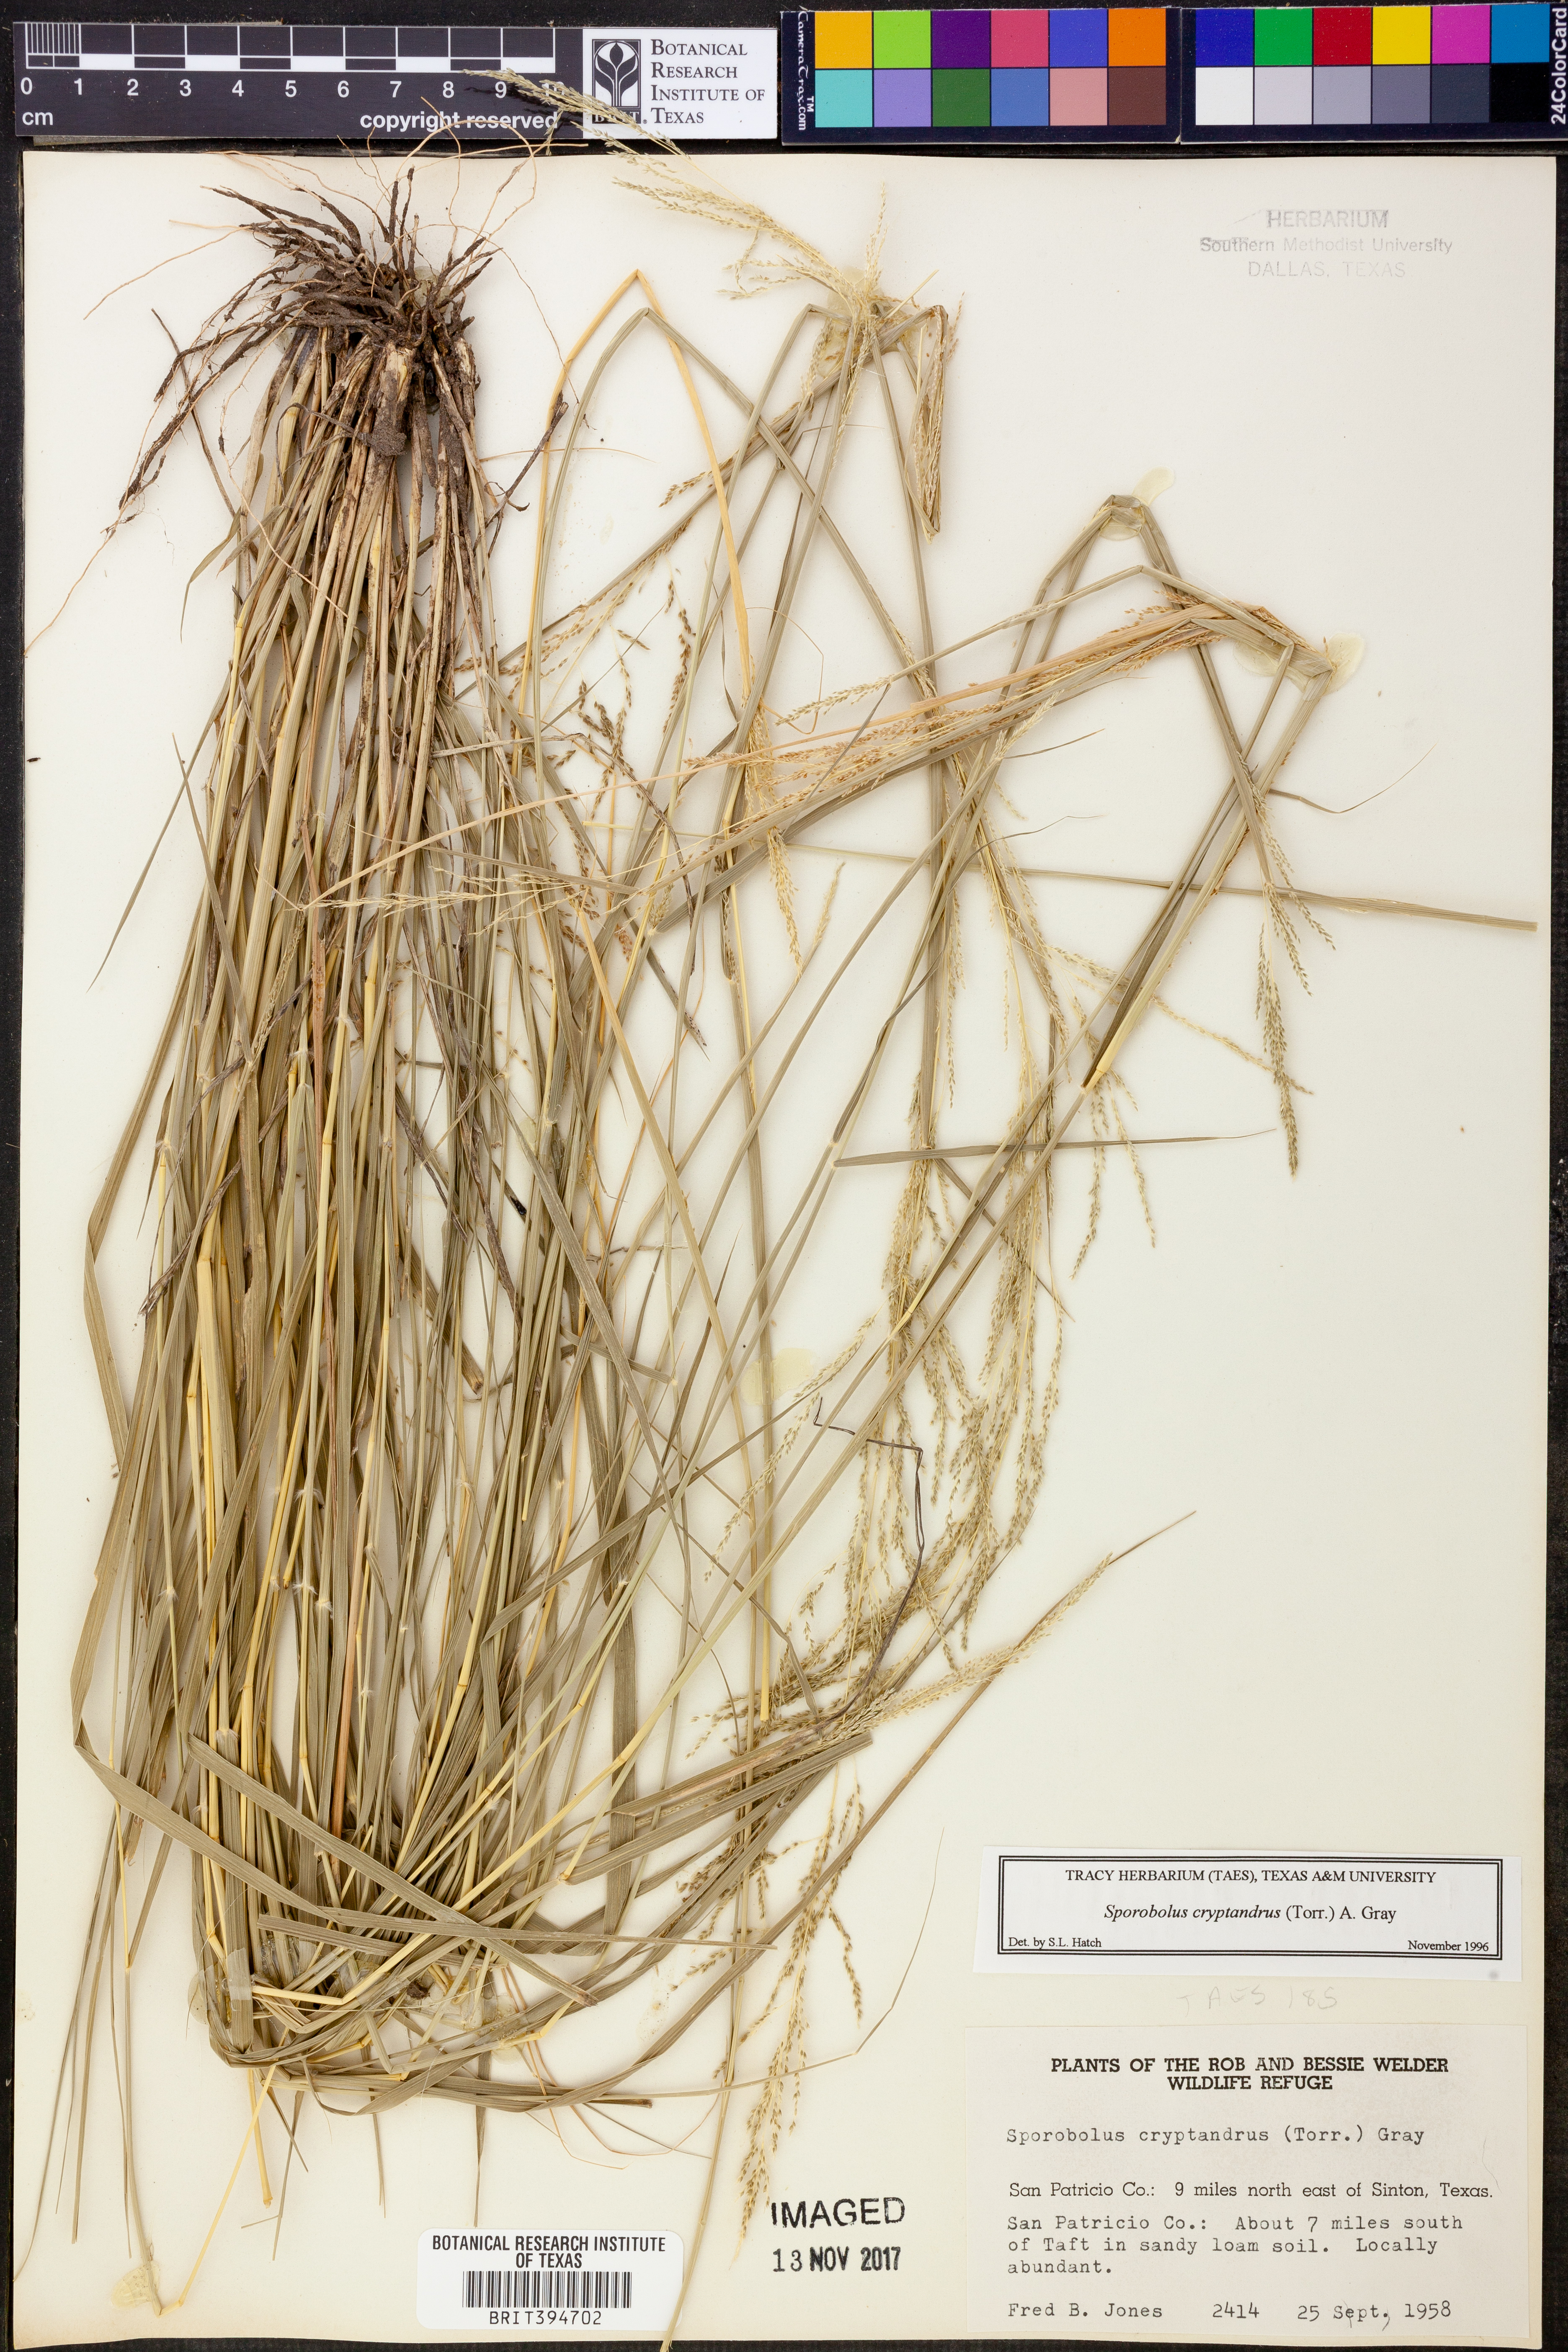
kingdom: Plantae
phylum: Tracheophyta
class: Liliopsida
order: Poales
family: Poaceae
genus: Sporobolus
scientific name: Sporobolus cryptandrus
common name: Sand dropseed
